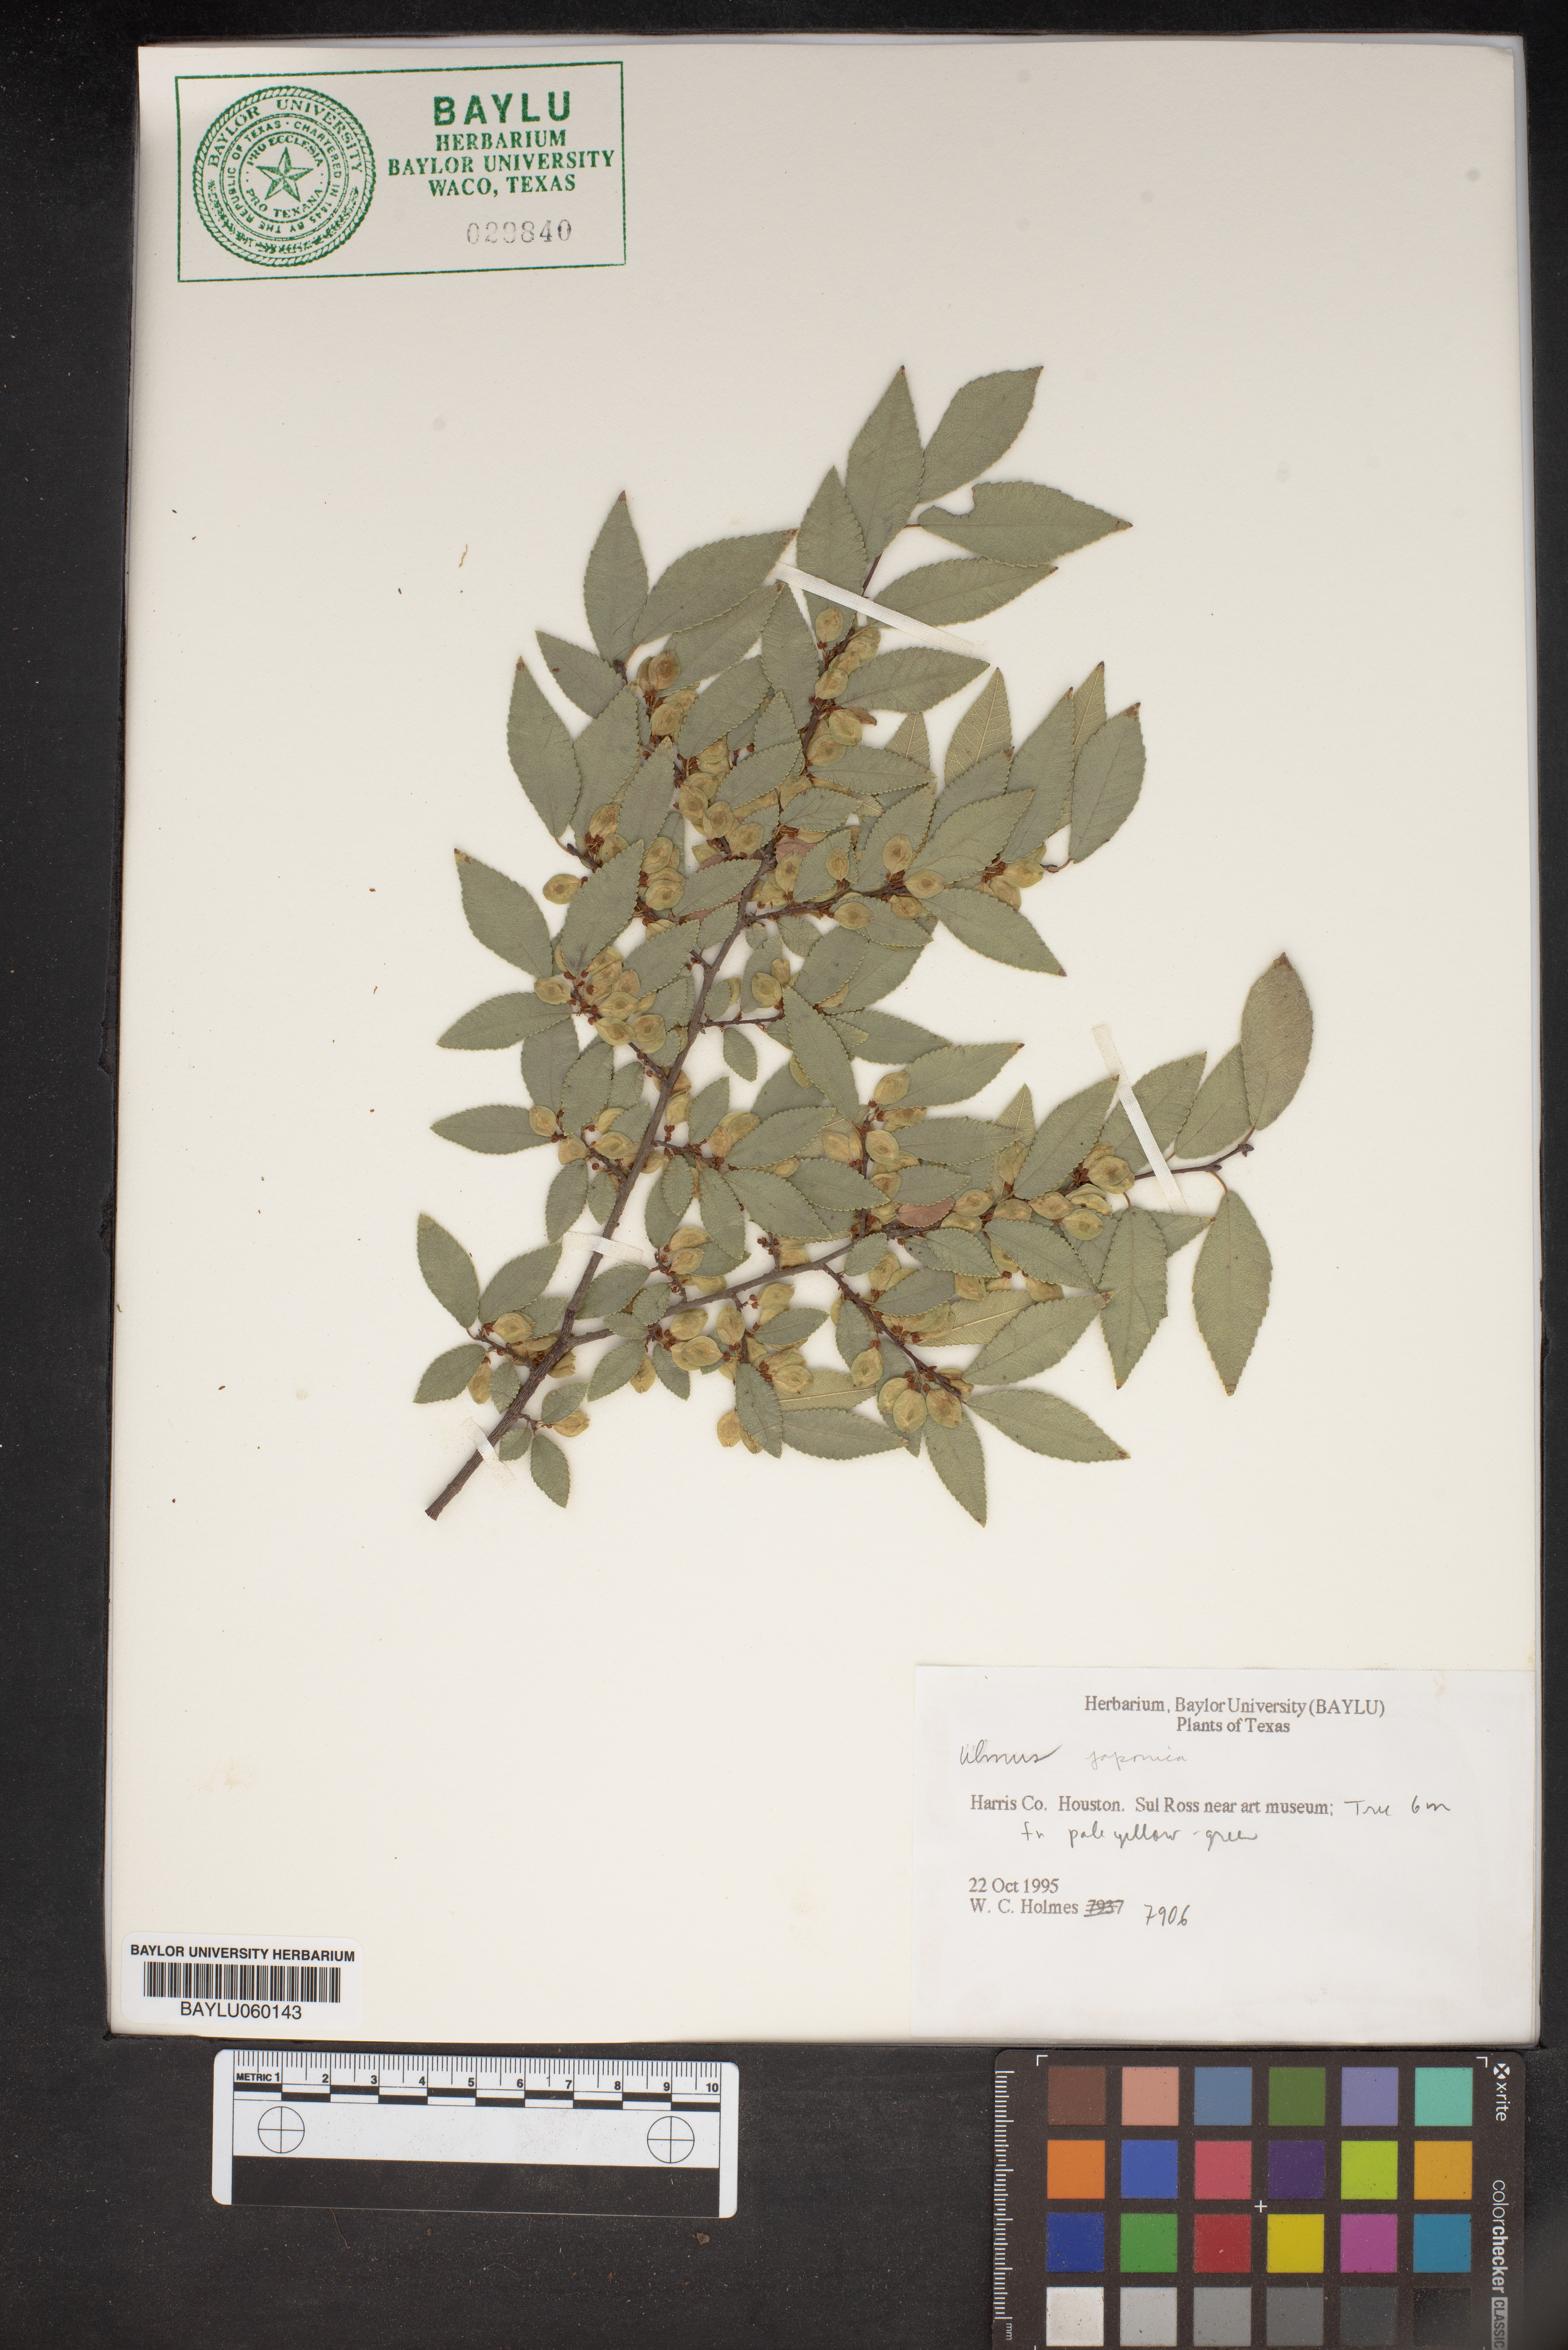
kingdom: Plantae
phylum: Tracheophyta
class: Magnoliopsida
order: Rosales
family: Ulmaceae
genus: Ulmus
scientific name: Ulmus davidiana
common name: Japanese elm
